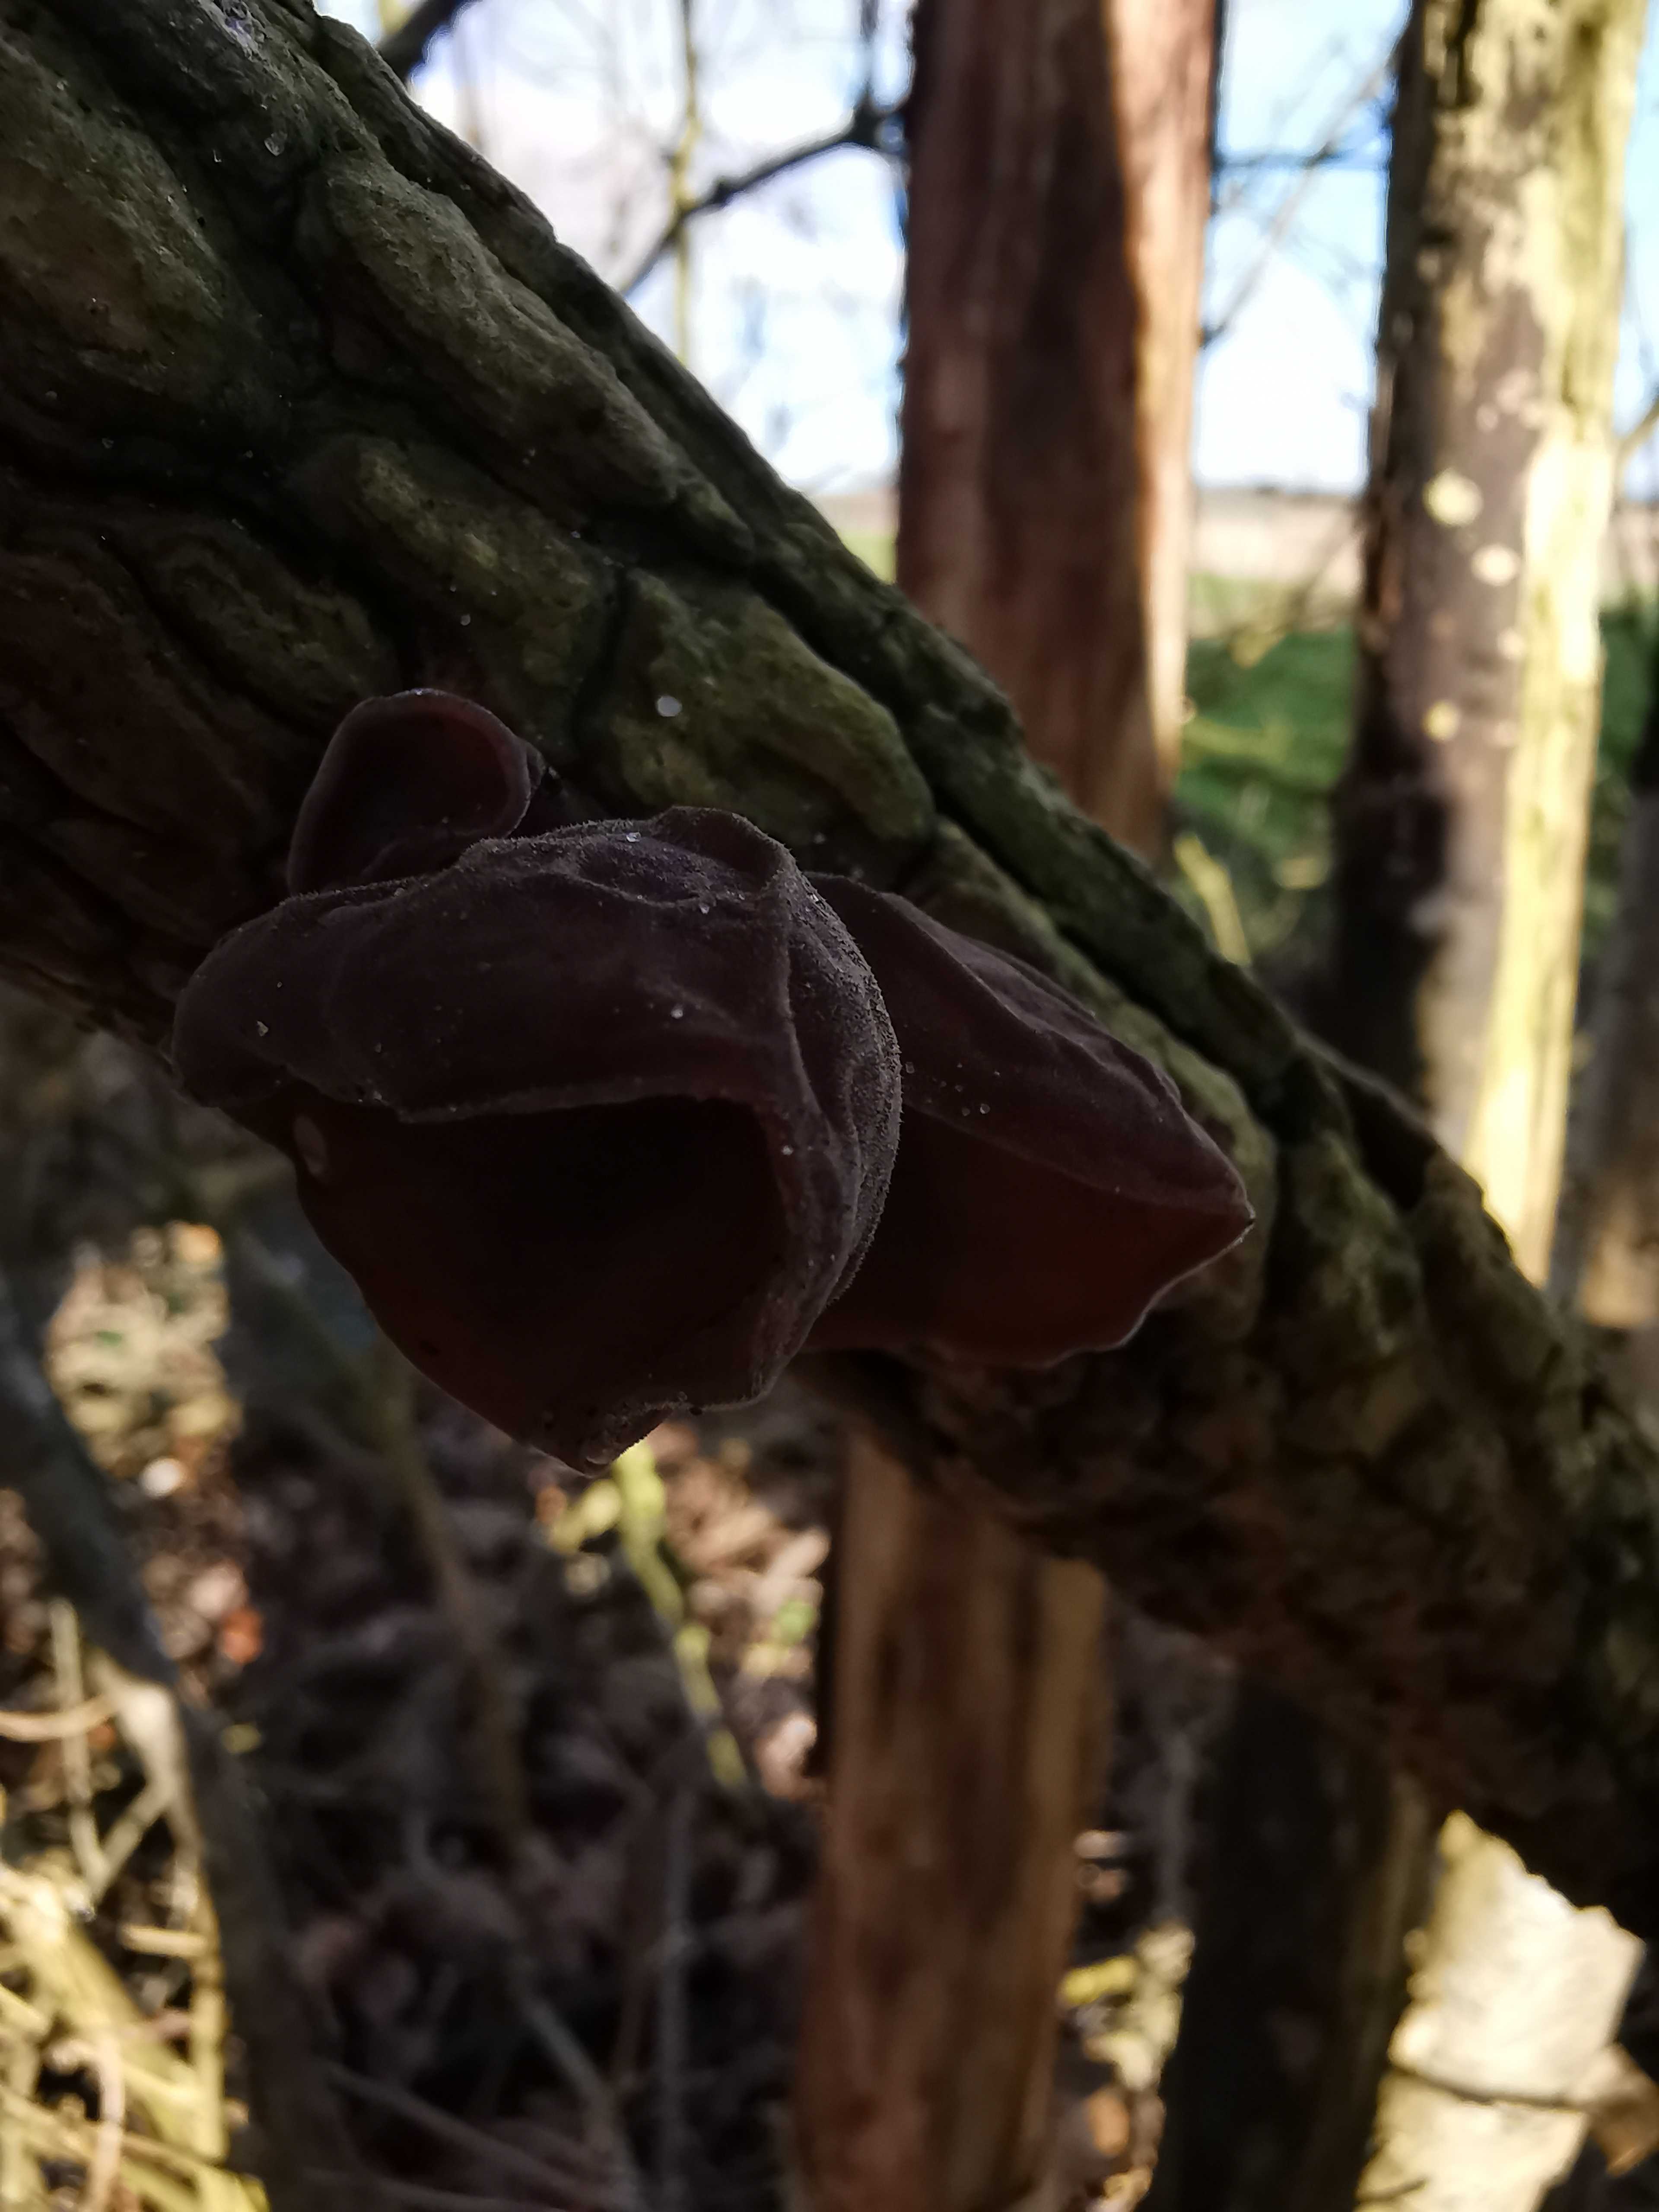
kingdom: Fungi
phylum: Basidiomycota
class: Agaricomycetes
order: Auriculariales
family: Auriculariaceae
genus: Auricularia
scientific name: Auricularia auricula-judae
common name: almindelig judasøre
